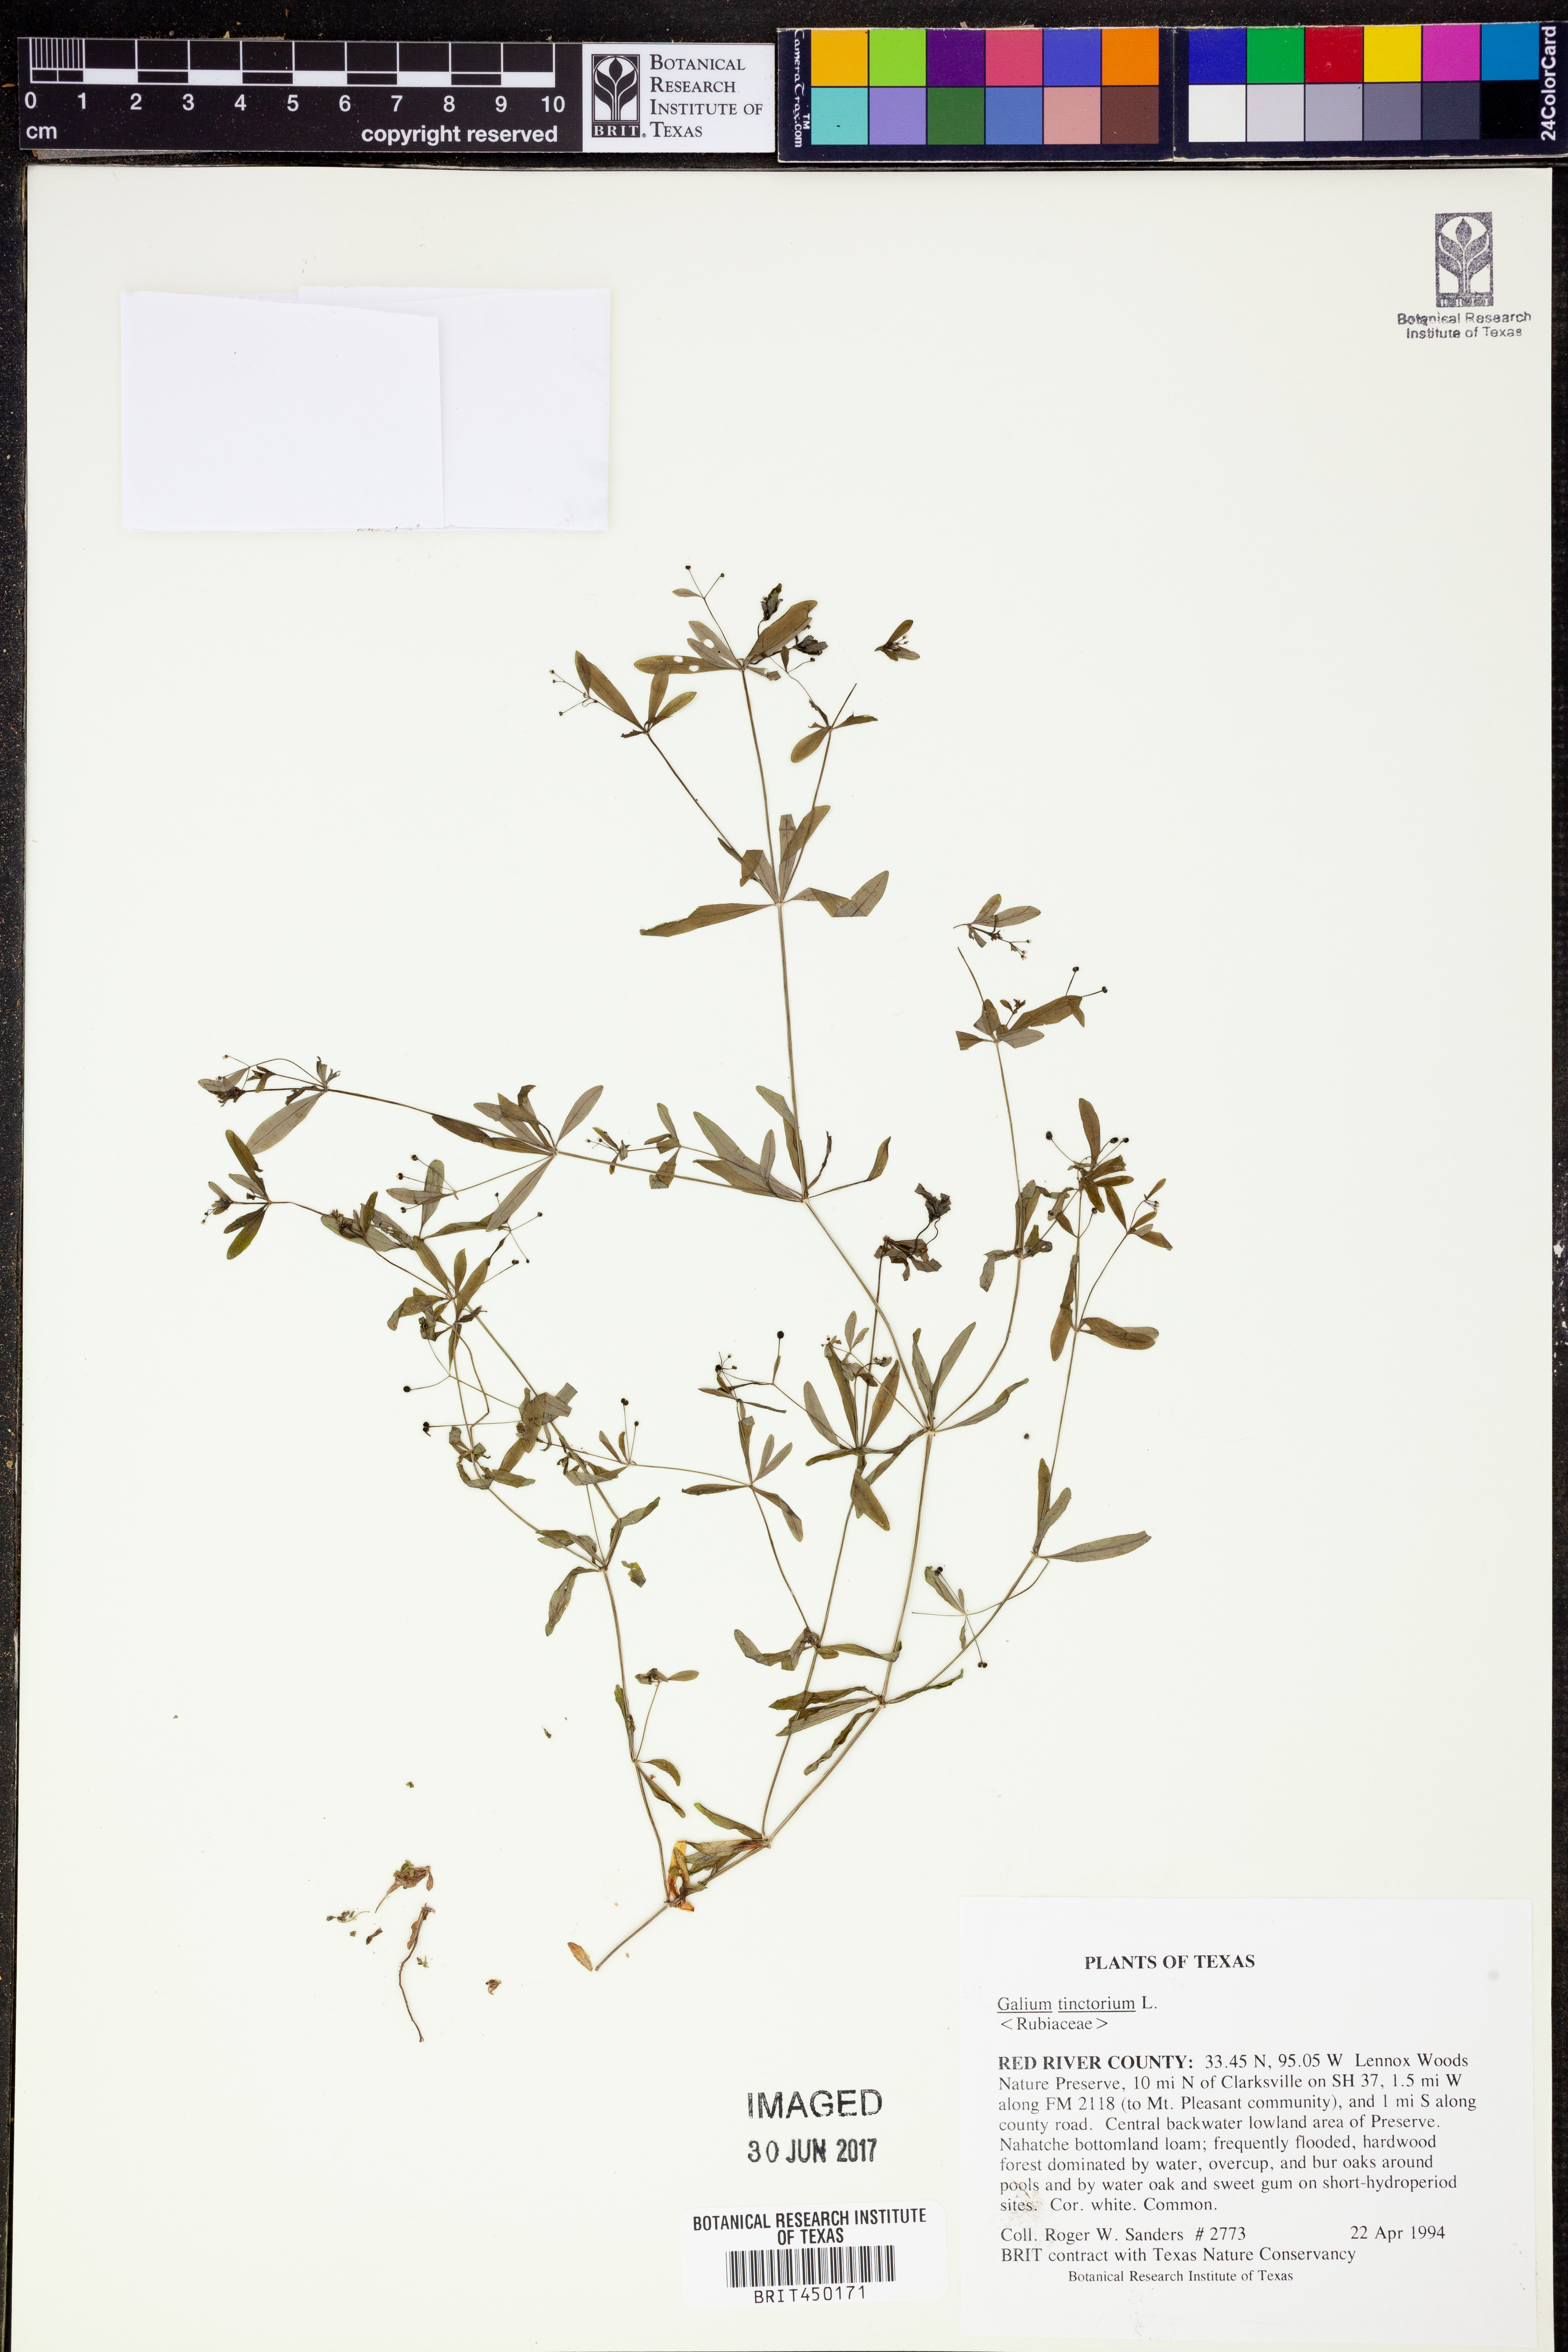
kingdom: Plantae
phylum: Tracheophyta
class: Magnoliopsida
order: Gentianales
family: Rubiaceae
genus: Asperula
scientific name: Asperula tinctoria
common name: Dyer's woodruff
